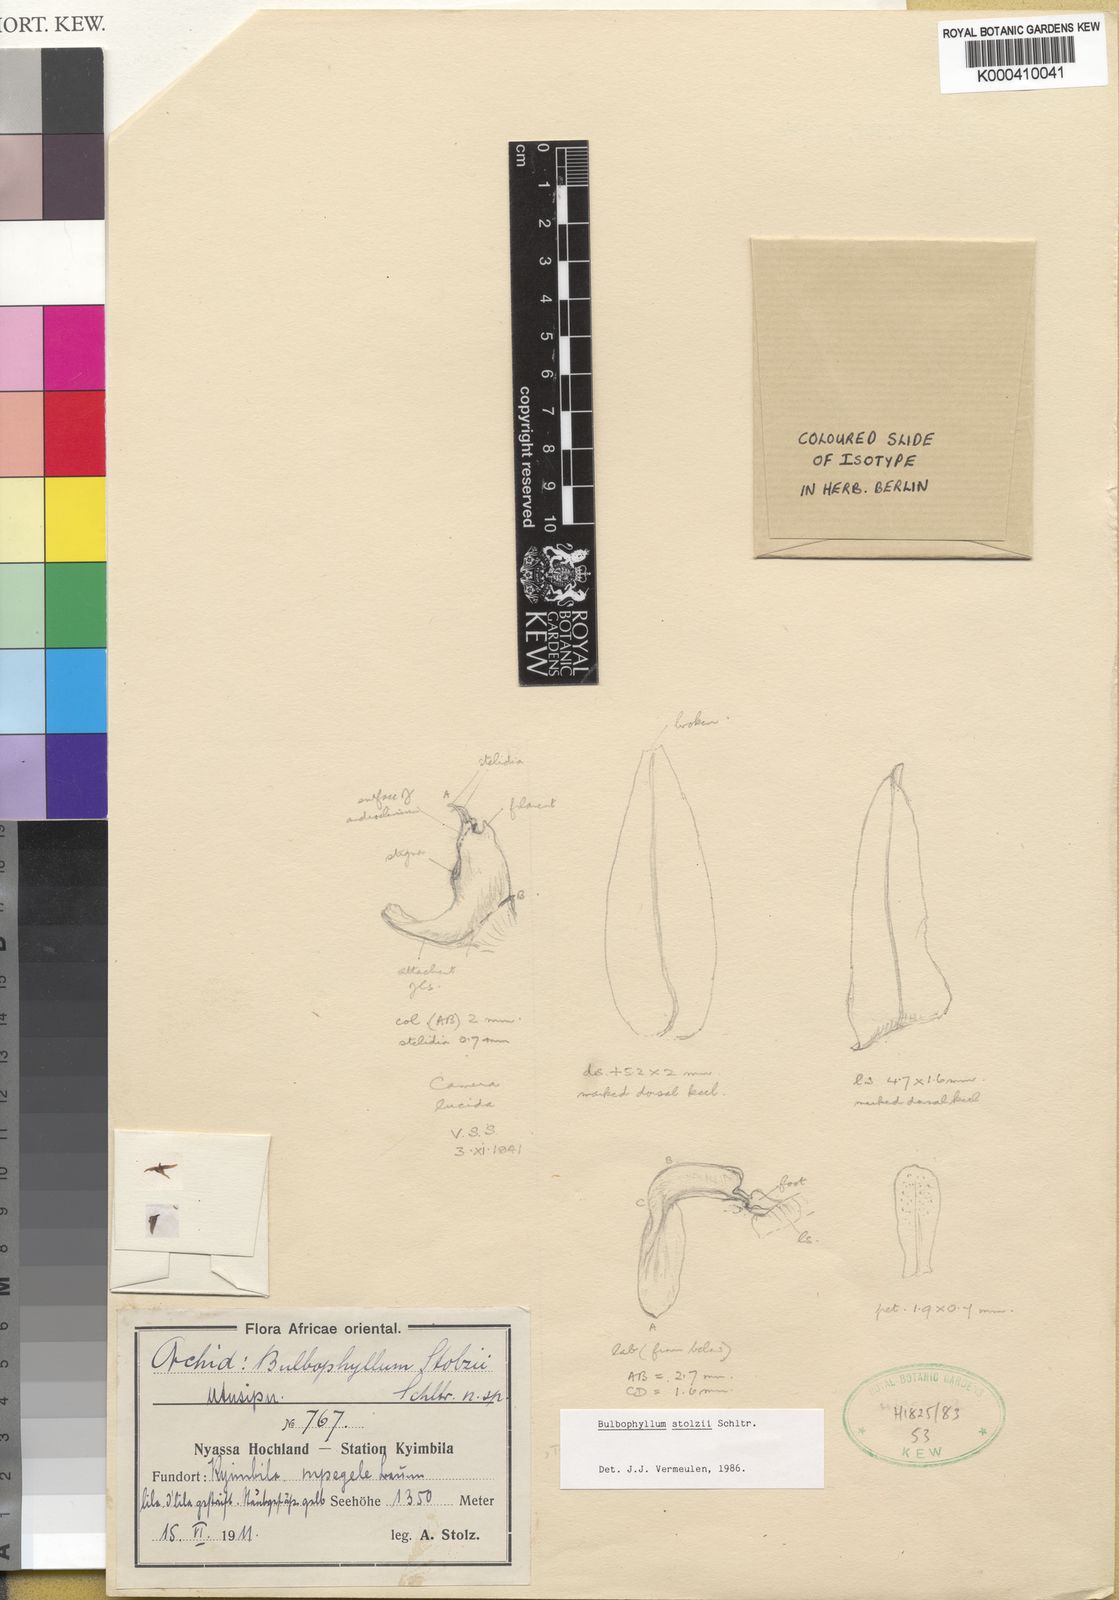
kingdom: Plantae
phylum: Tracheophyta
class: Liliopsida
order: Asparagales
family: Orchidaceae
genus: Bulbophyllum
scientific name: Bulbophyllum stolzii
